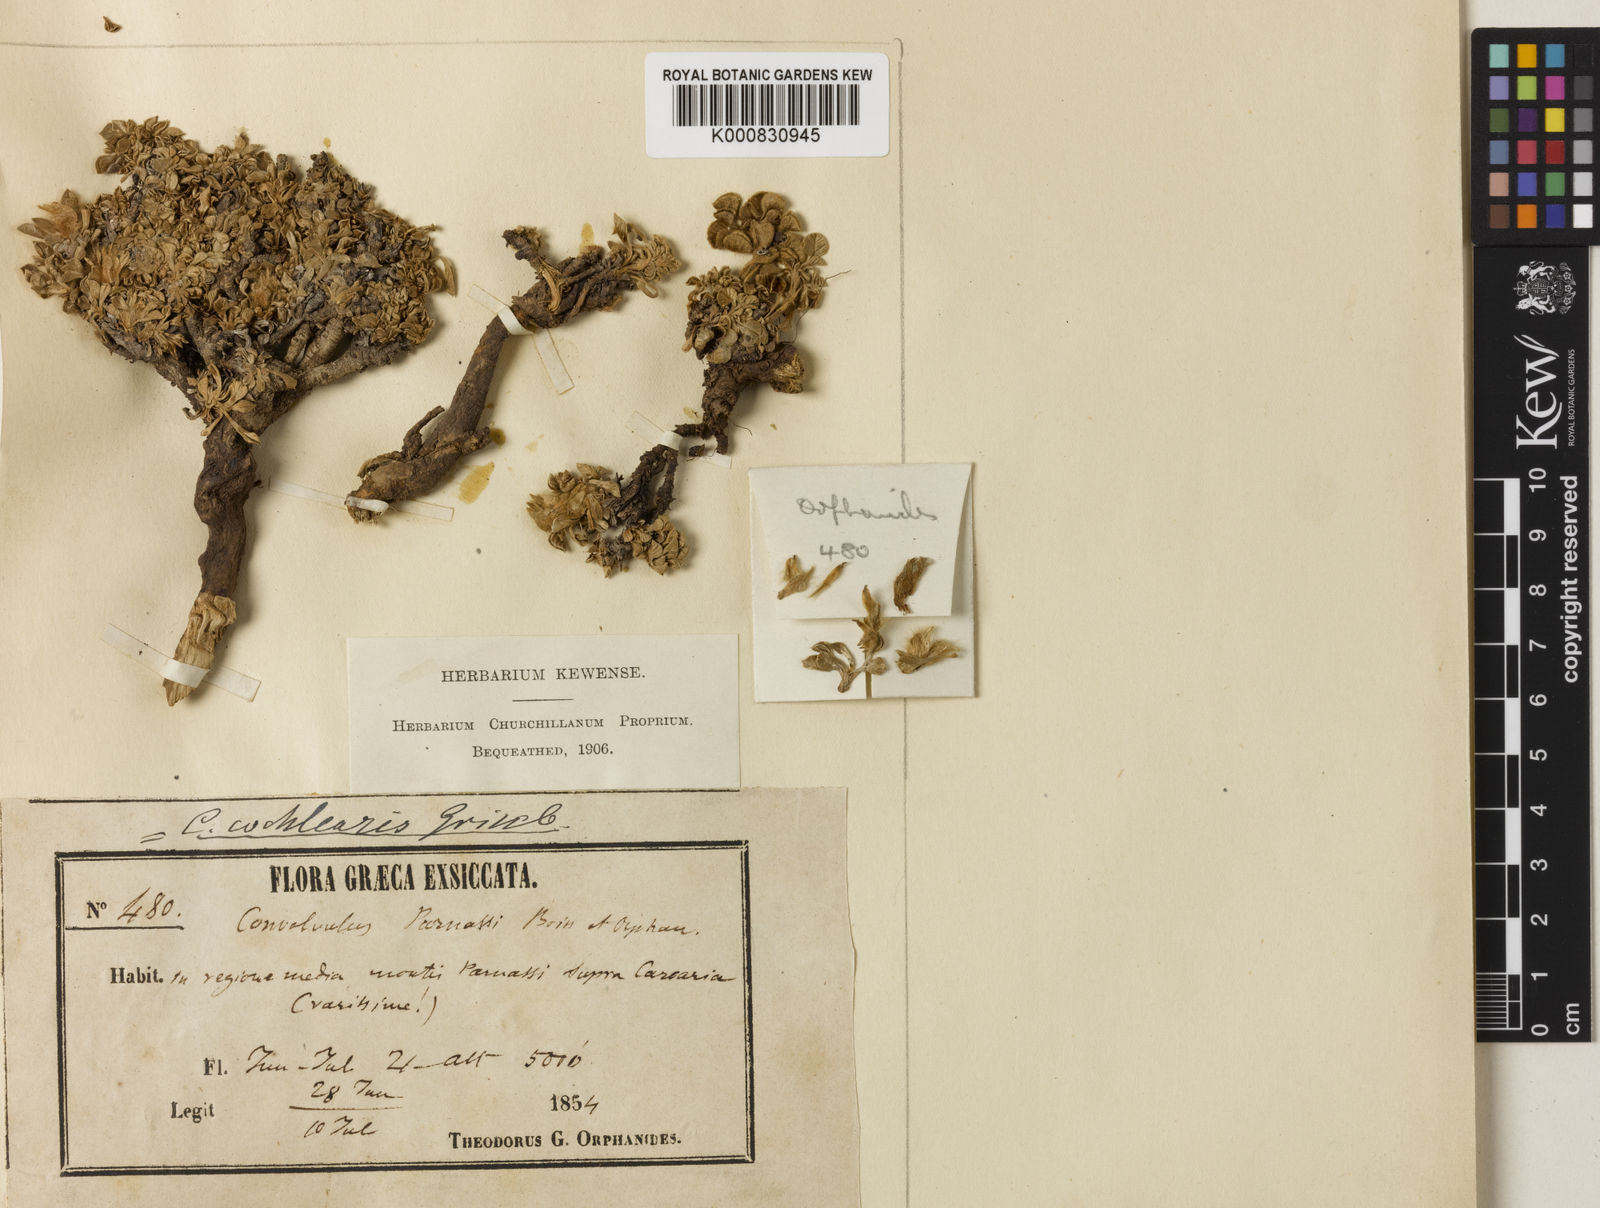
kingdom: Plantae
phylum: Tracheophyta
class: Magnoliopsida
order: Solanales
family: Convolvulaceae
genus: Convolvulus
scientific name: Convolvulus boissieri
